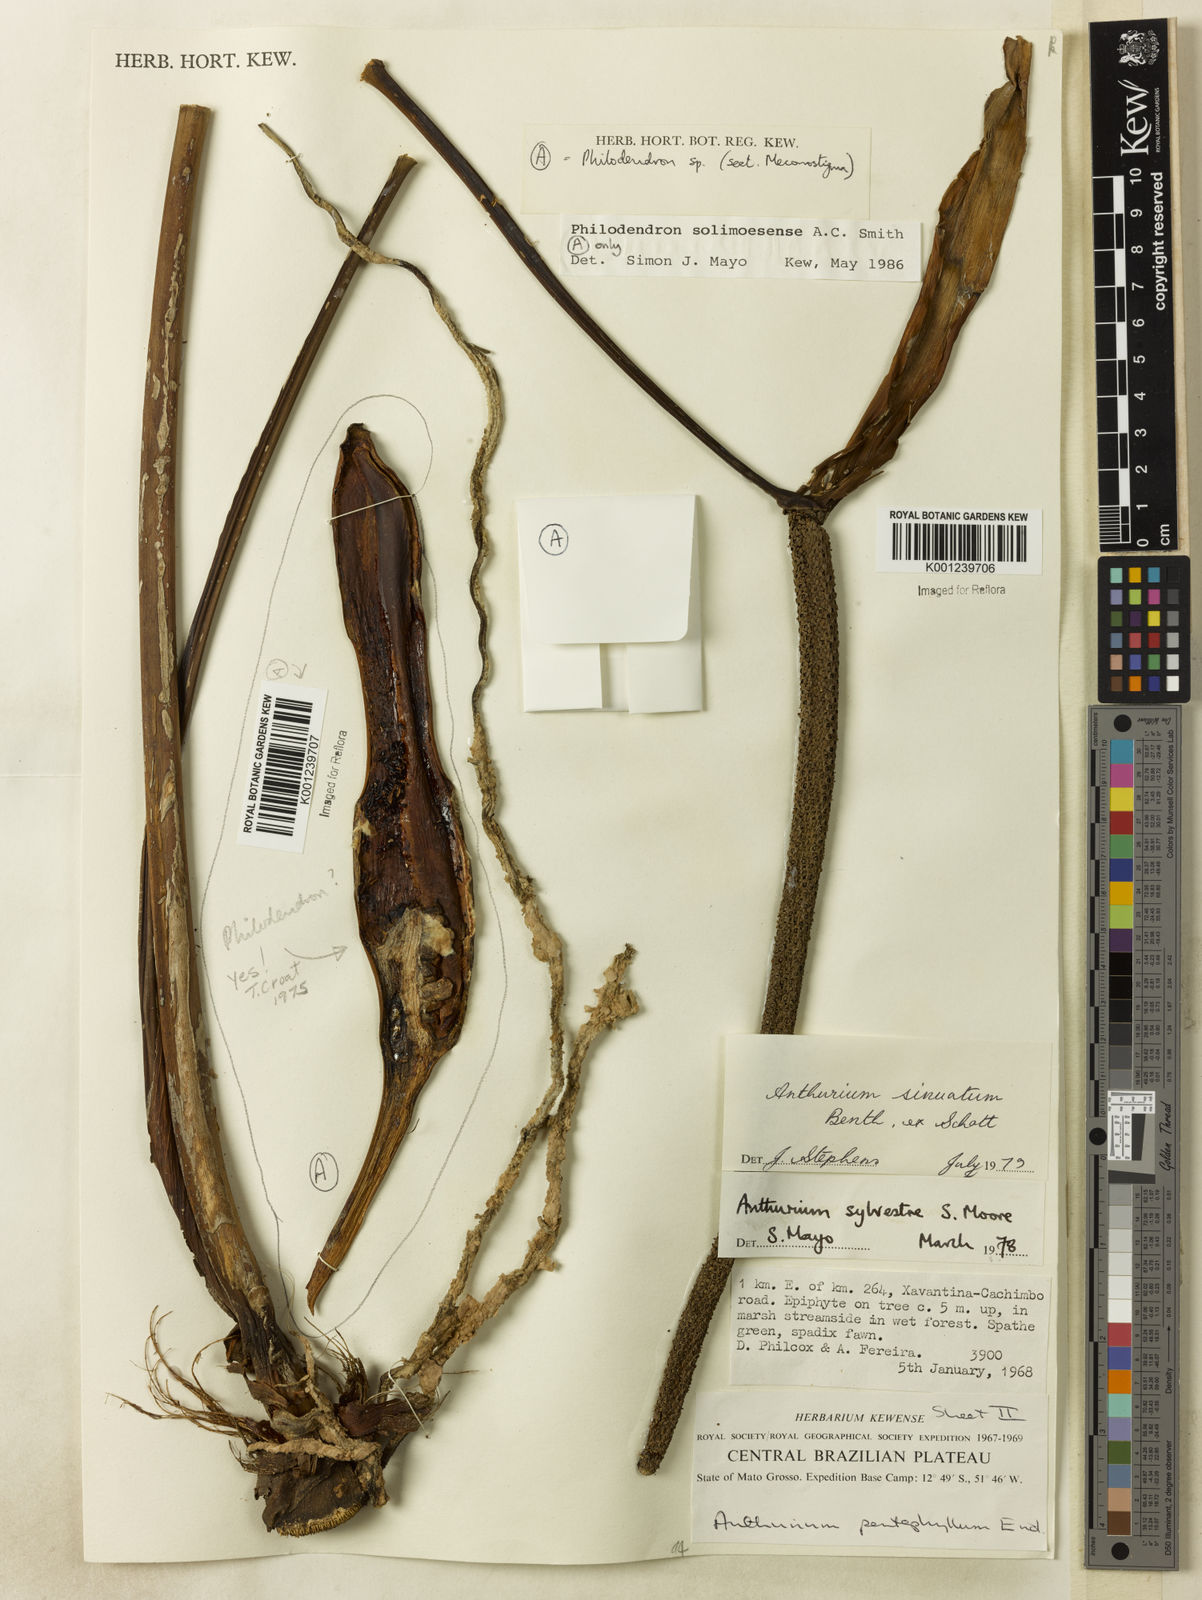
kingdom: Plantae
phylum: Tracheophyta
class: Liliopsida
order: Alismatales
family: Araceae
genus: Anthurium
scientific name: Anthurium sinuatum
